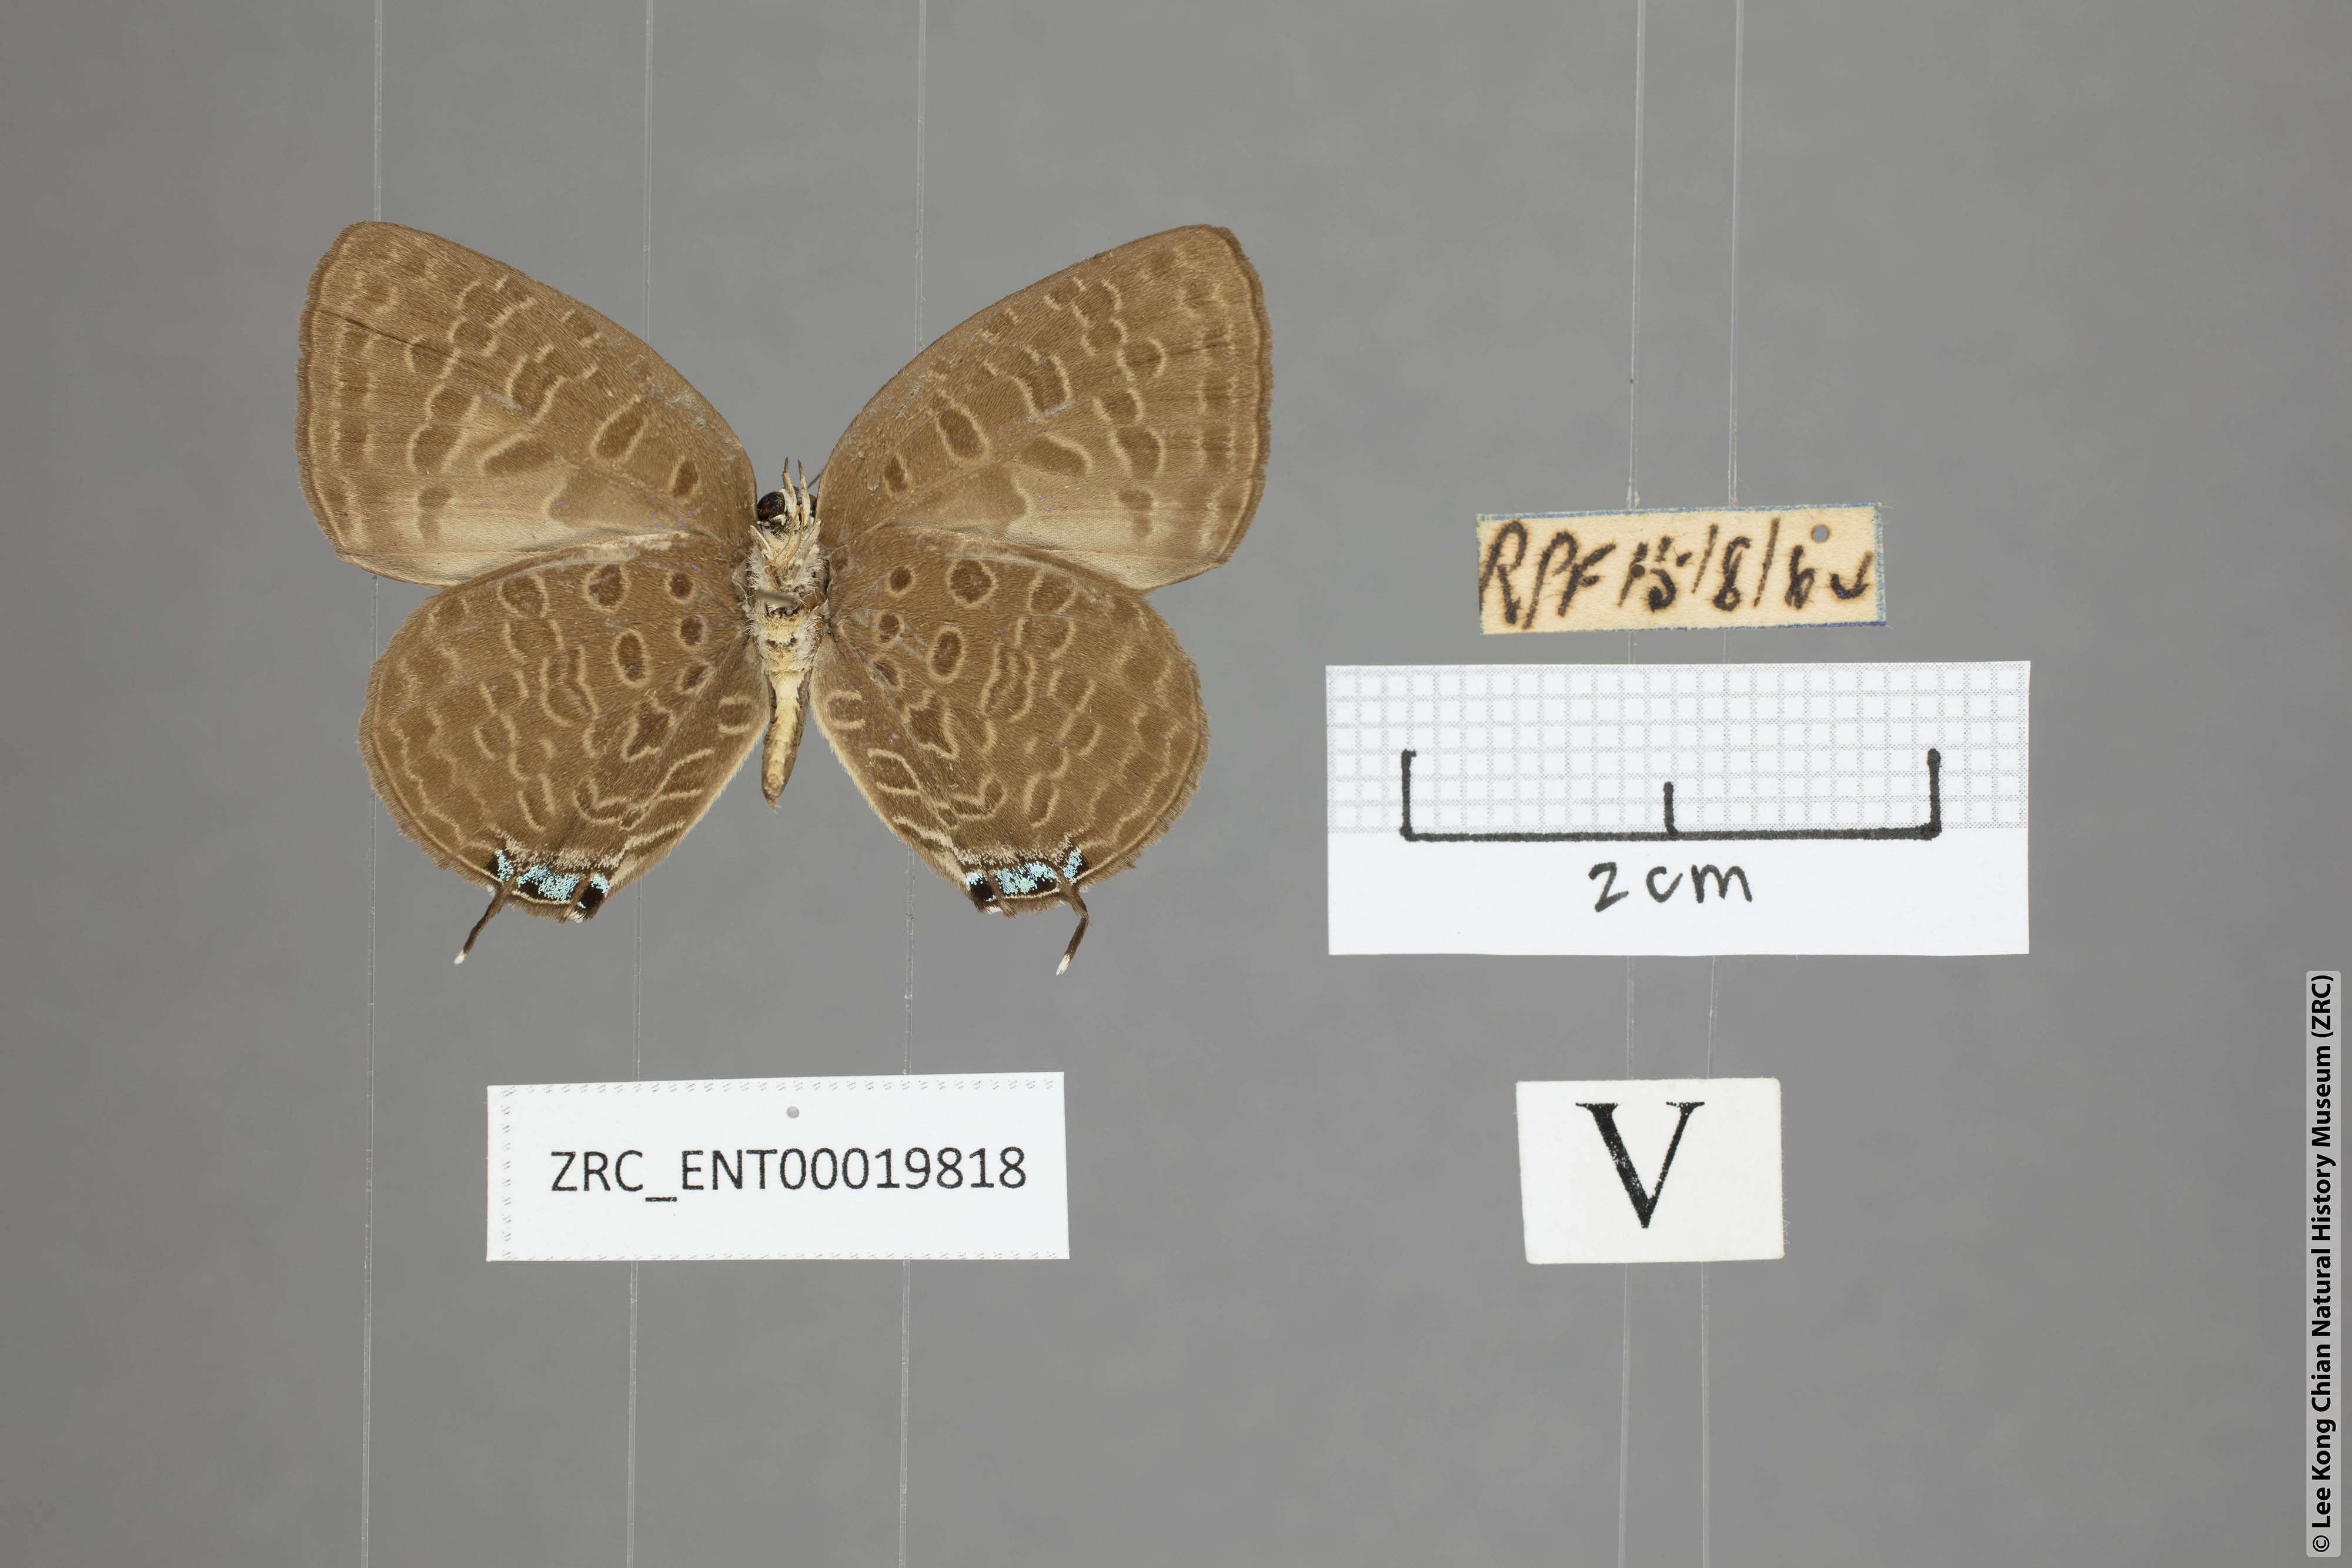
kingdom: Animalia
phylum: Arthropoda
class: Insecta
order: Lepidoptera
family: Lycaenidae
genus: Arhopala
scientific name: Arhopala pseudomuta
